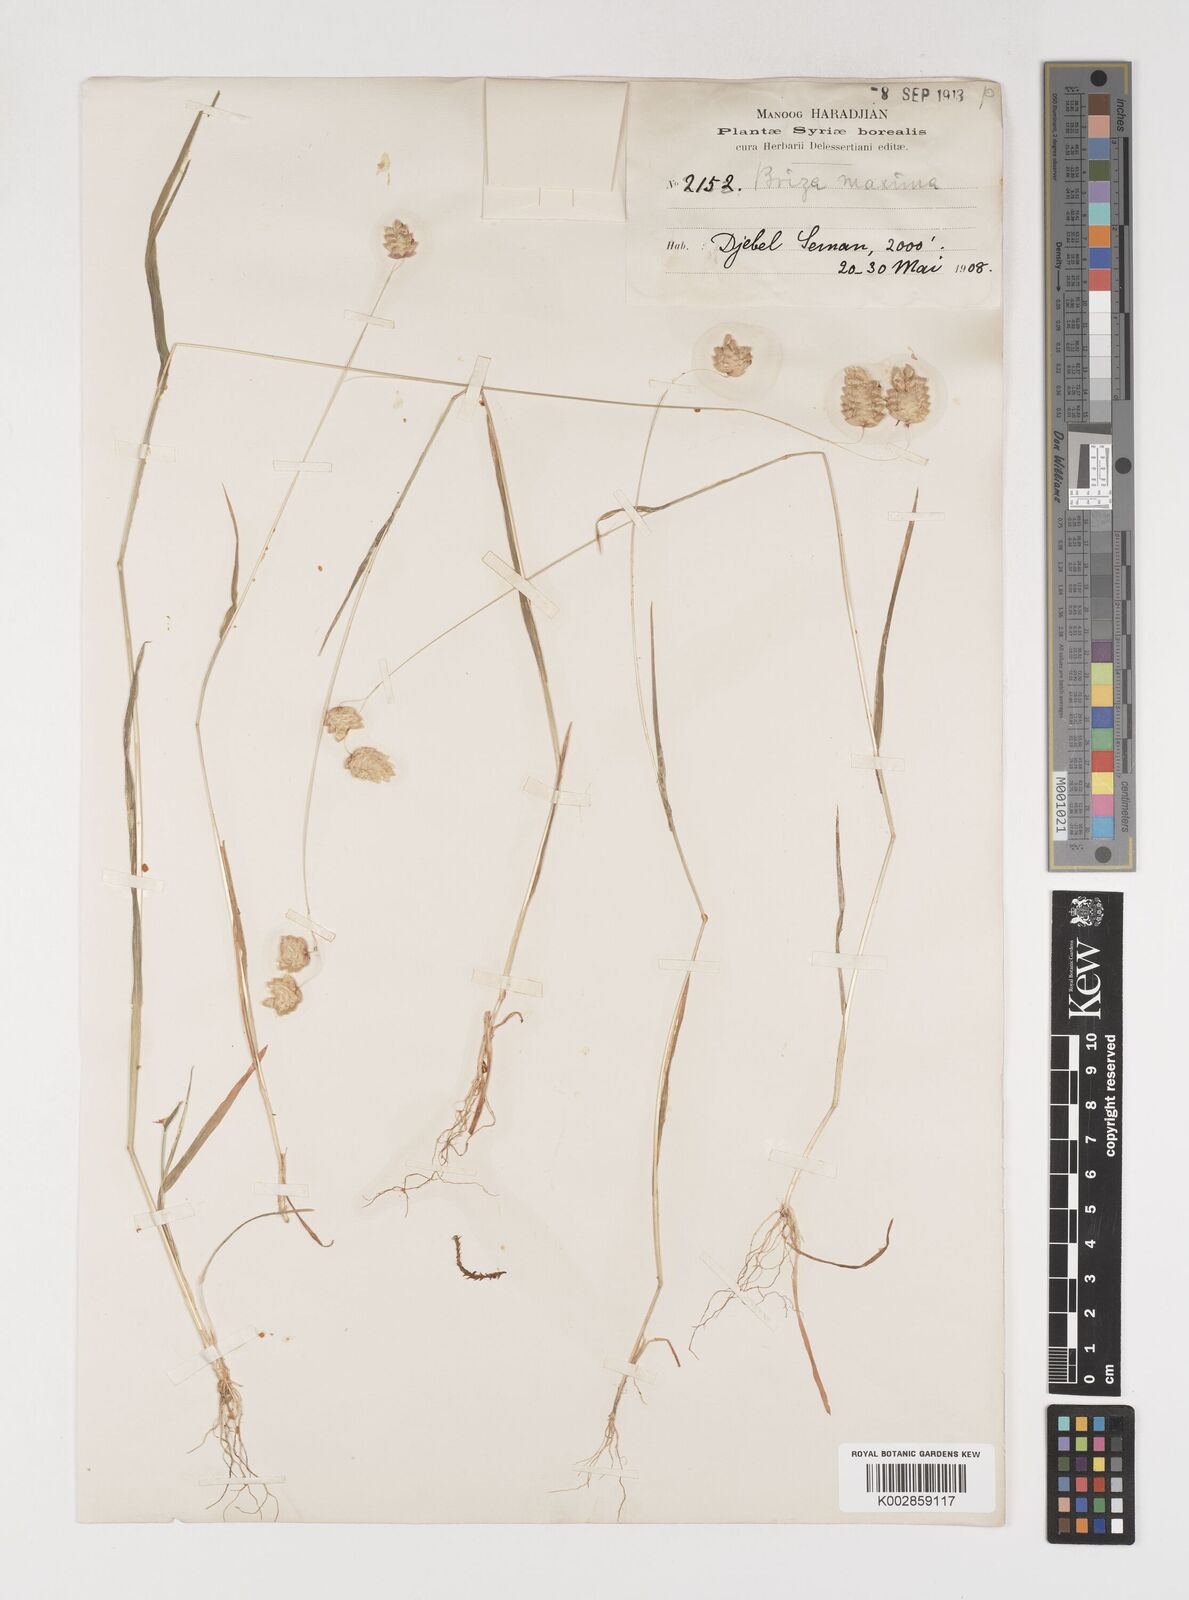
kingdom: Plantae
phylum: Tracheophyta
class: Liliopsida
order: Poales
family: Poaceae
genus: Briza
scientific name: Briza maxima
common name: Big quakinggrass
